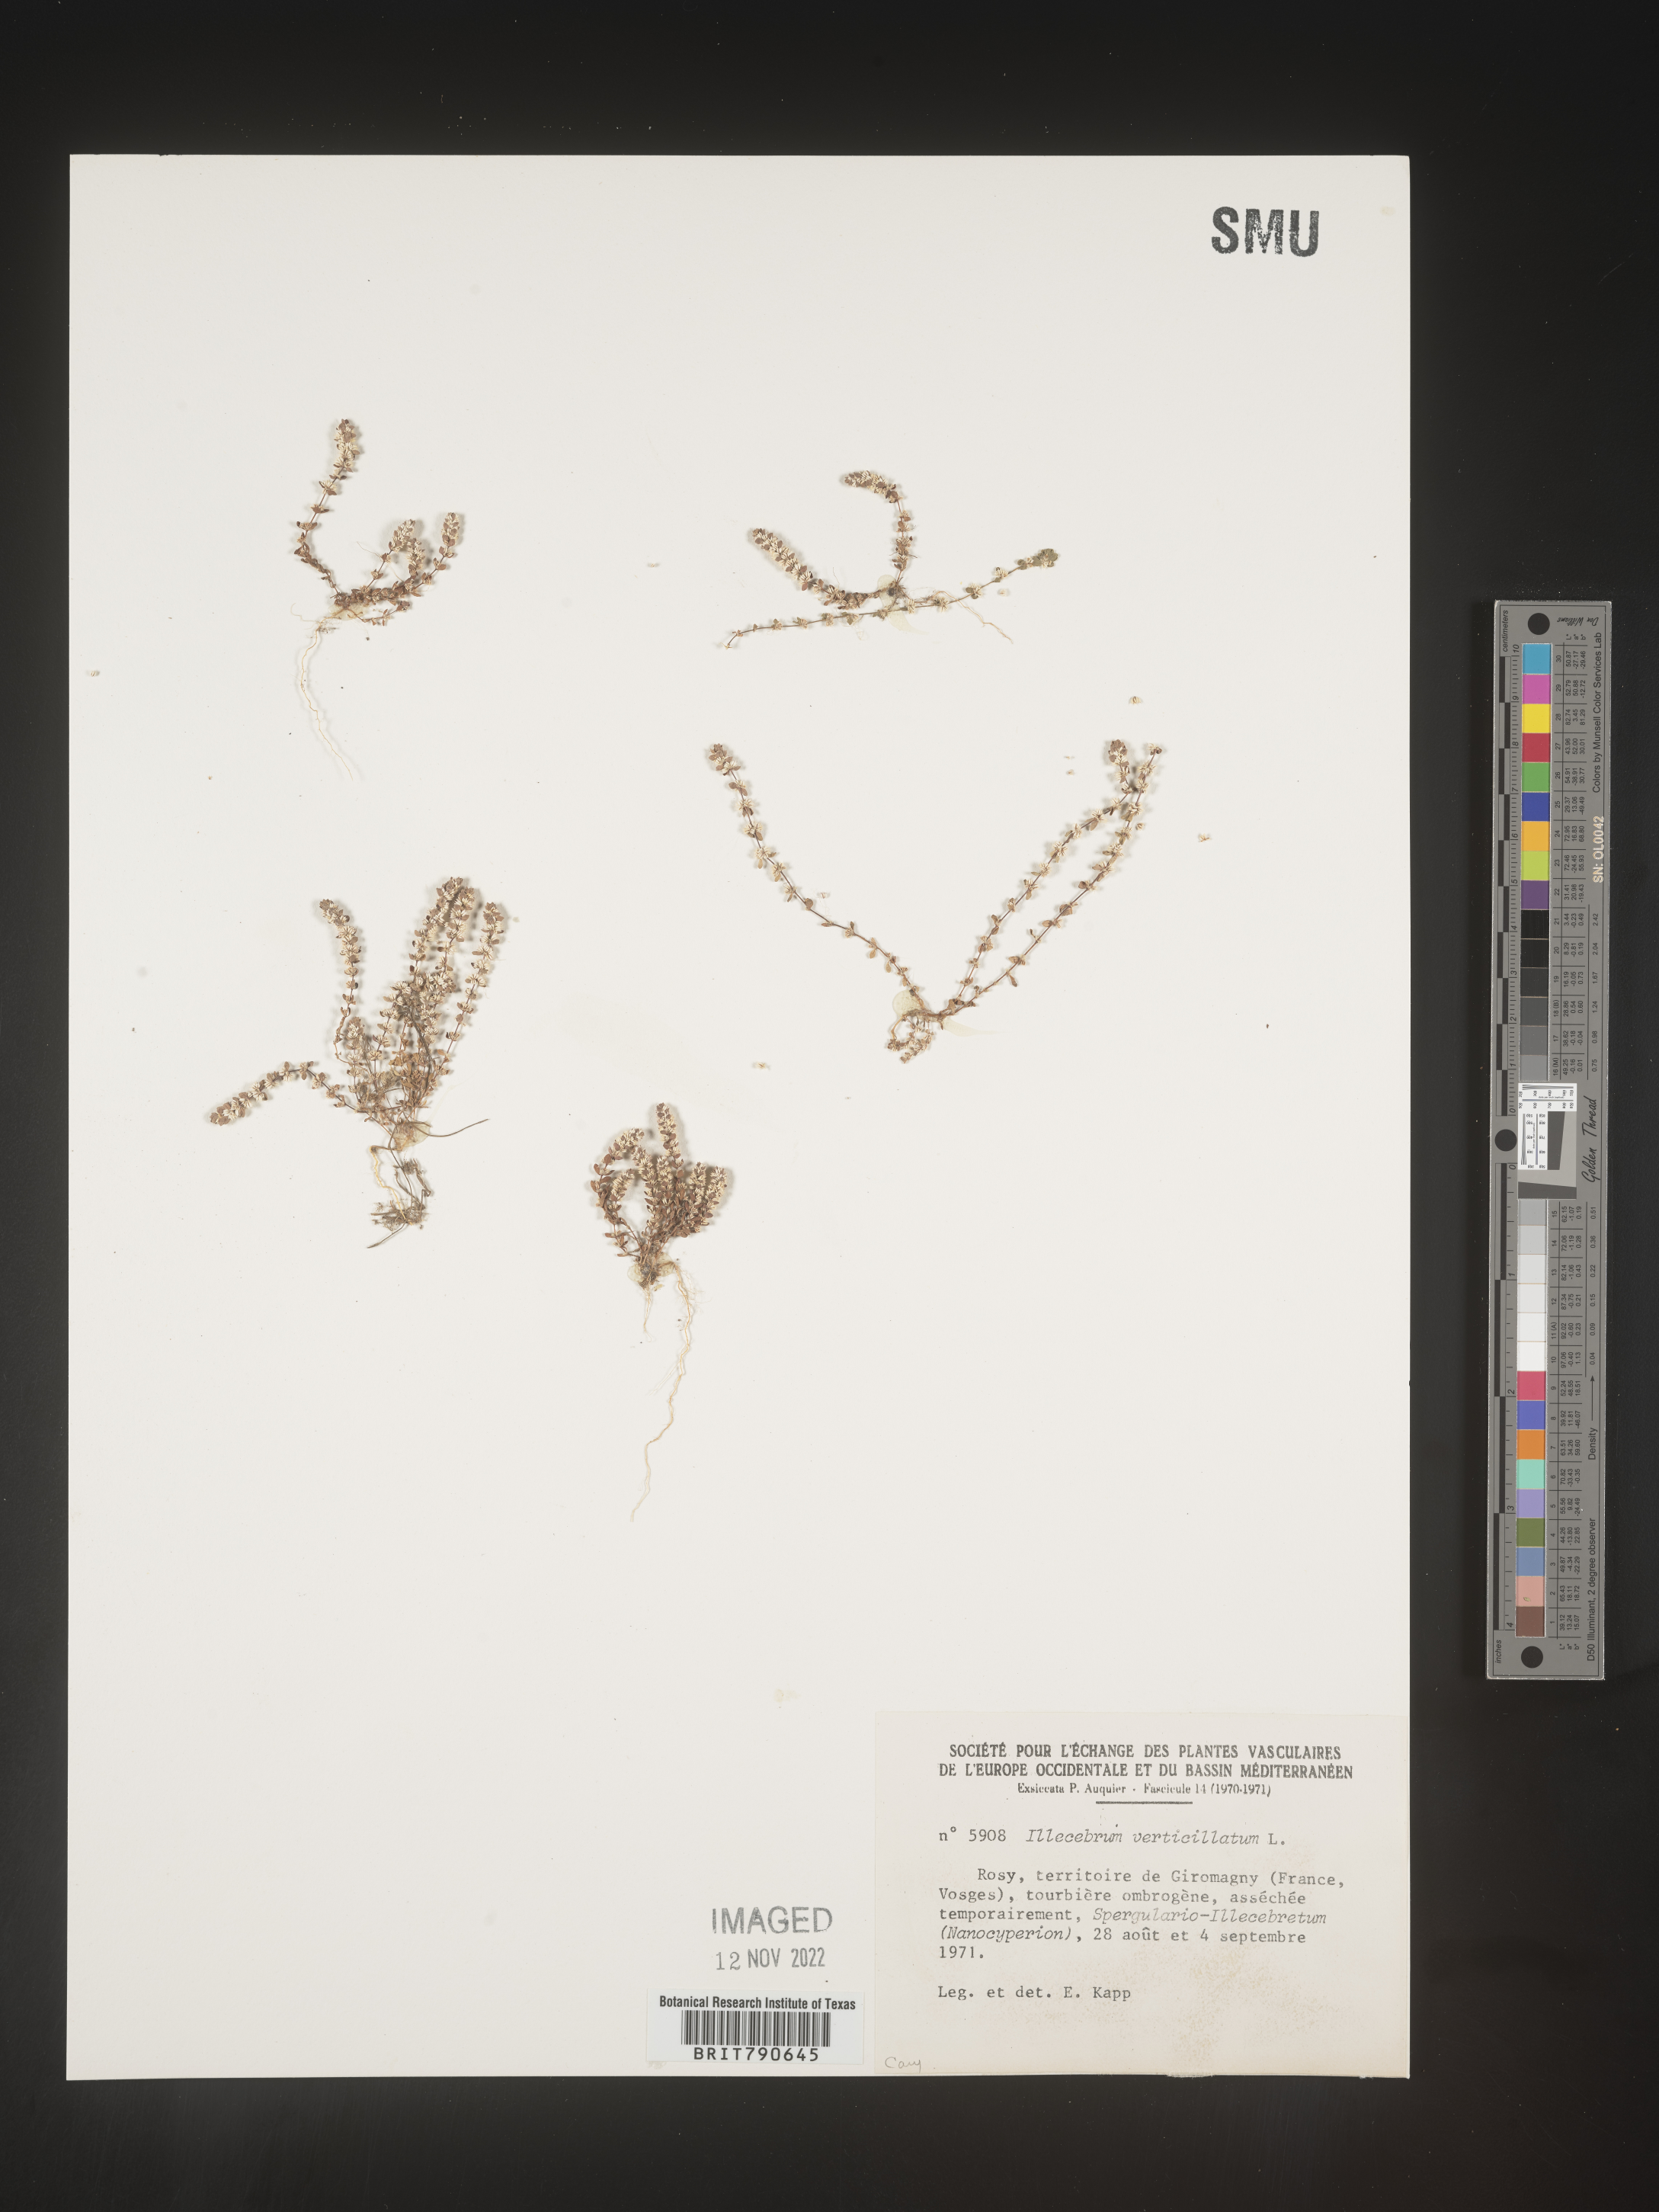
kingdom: Plantae
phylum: Tracheophyta
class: Magnoliopsida
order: Caryophyllales
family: Caryophyllaceae
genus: Illecebrum
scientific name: Illecebrum
